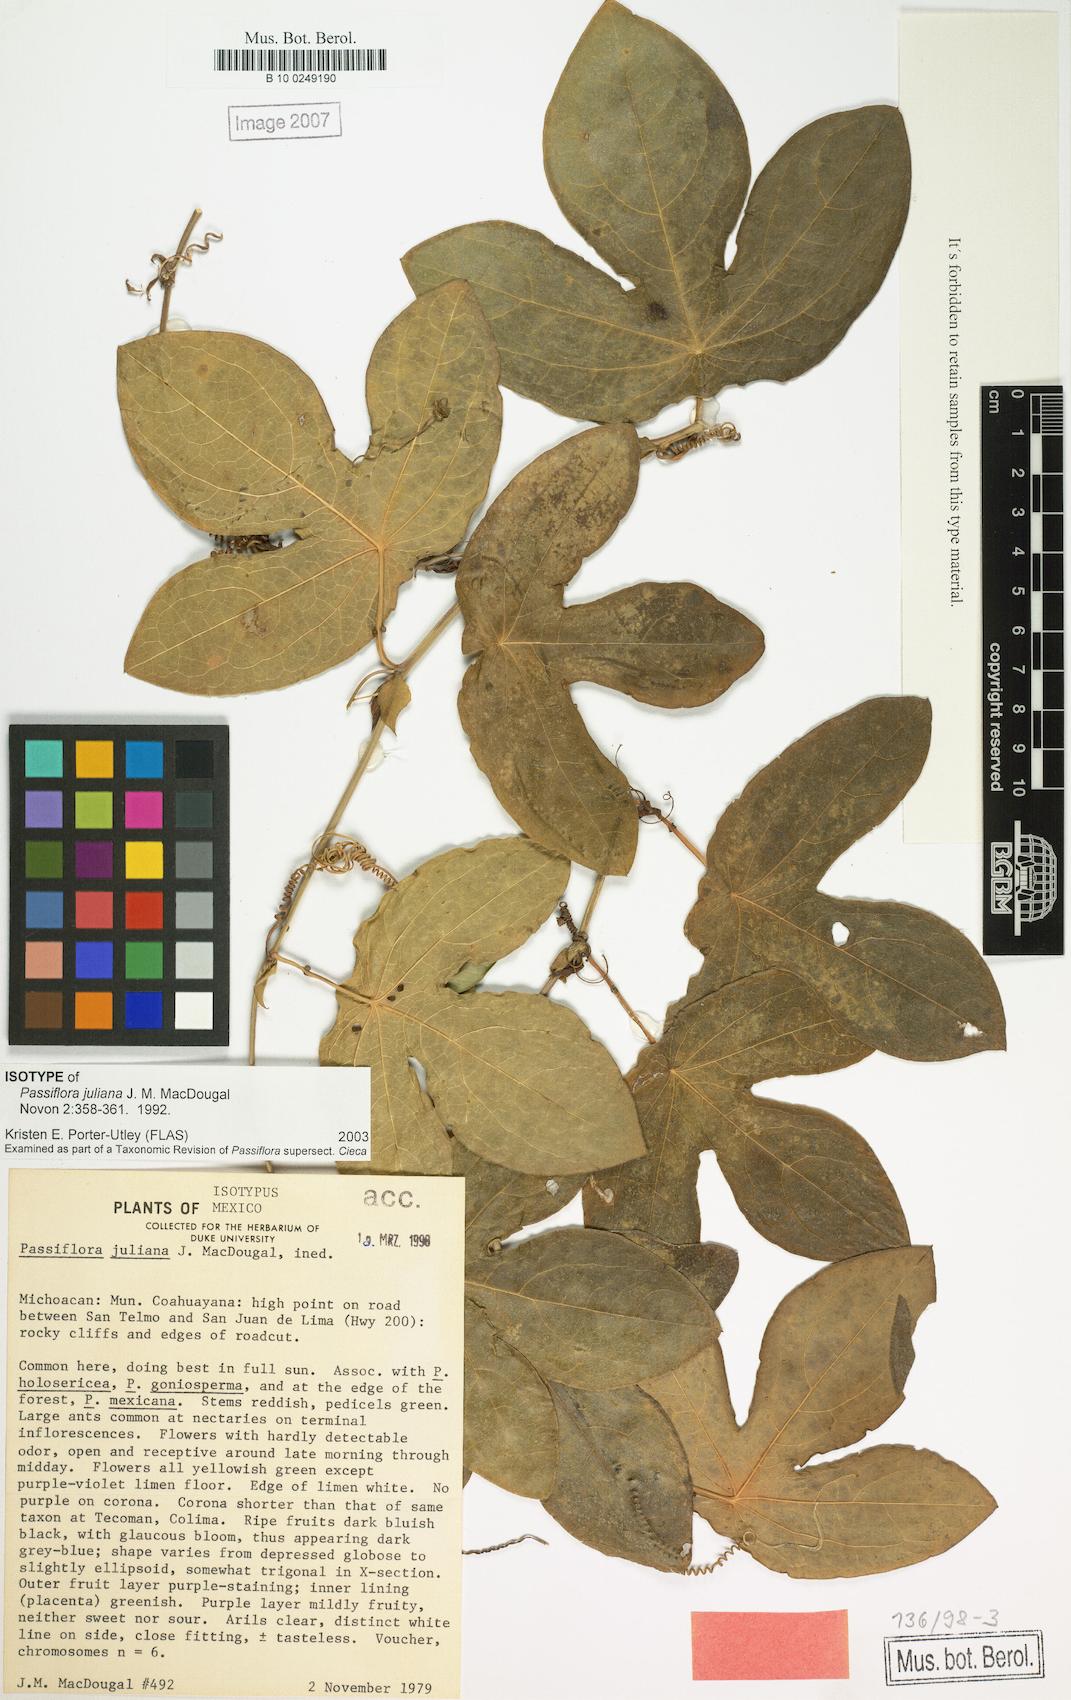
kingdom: Plantae
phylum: Tracheophyta
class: Magnoliopsida
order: Malpighiales
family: Passifloraceae
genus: Passiflora
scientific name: Passiflora juliana
